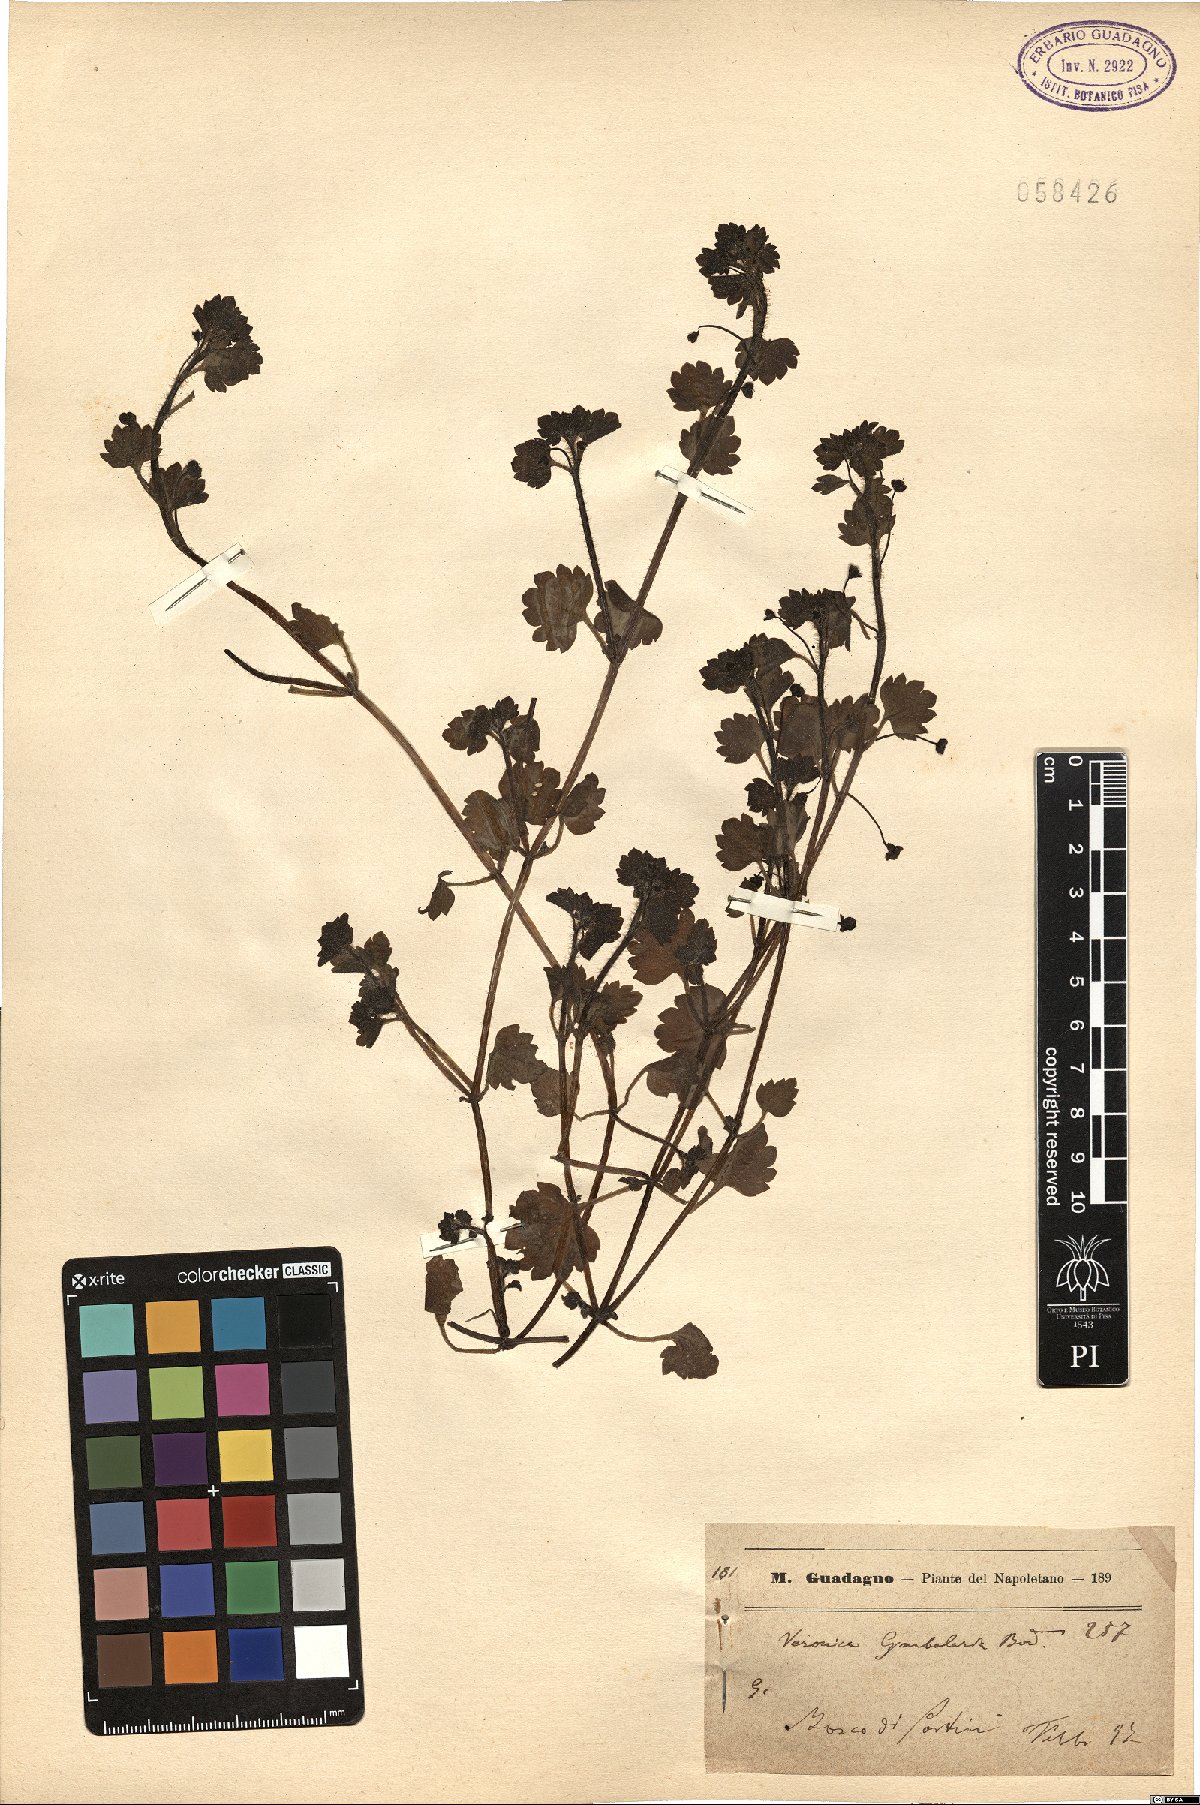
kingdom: Plantae
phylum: Tracheophyta
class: Magnoliopsida
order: Lamiales
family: Plantaginaceae
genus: Veronica
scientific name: Veronica cymbalaria
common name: Pale speedwell
